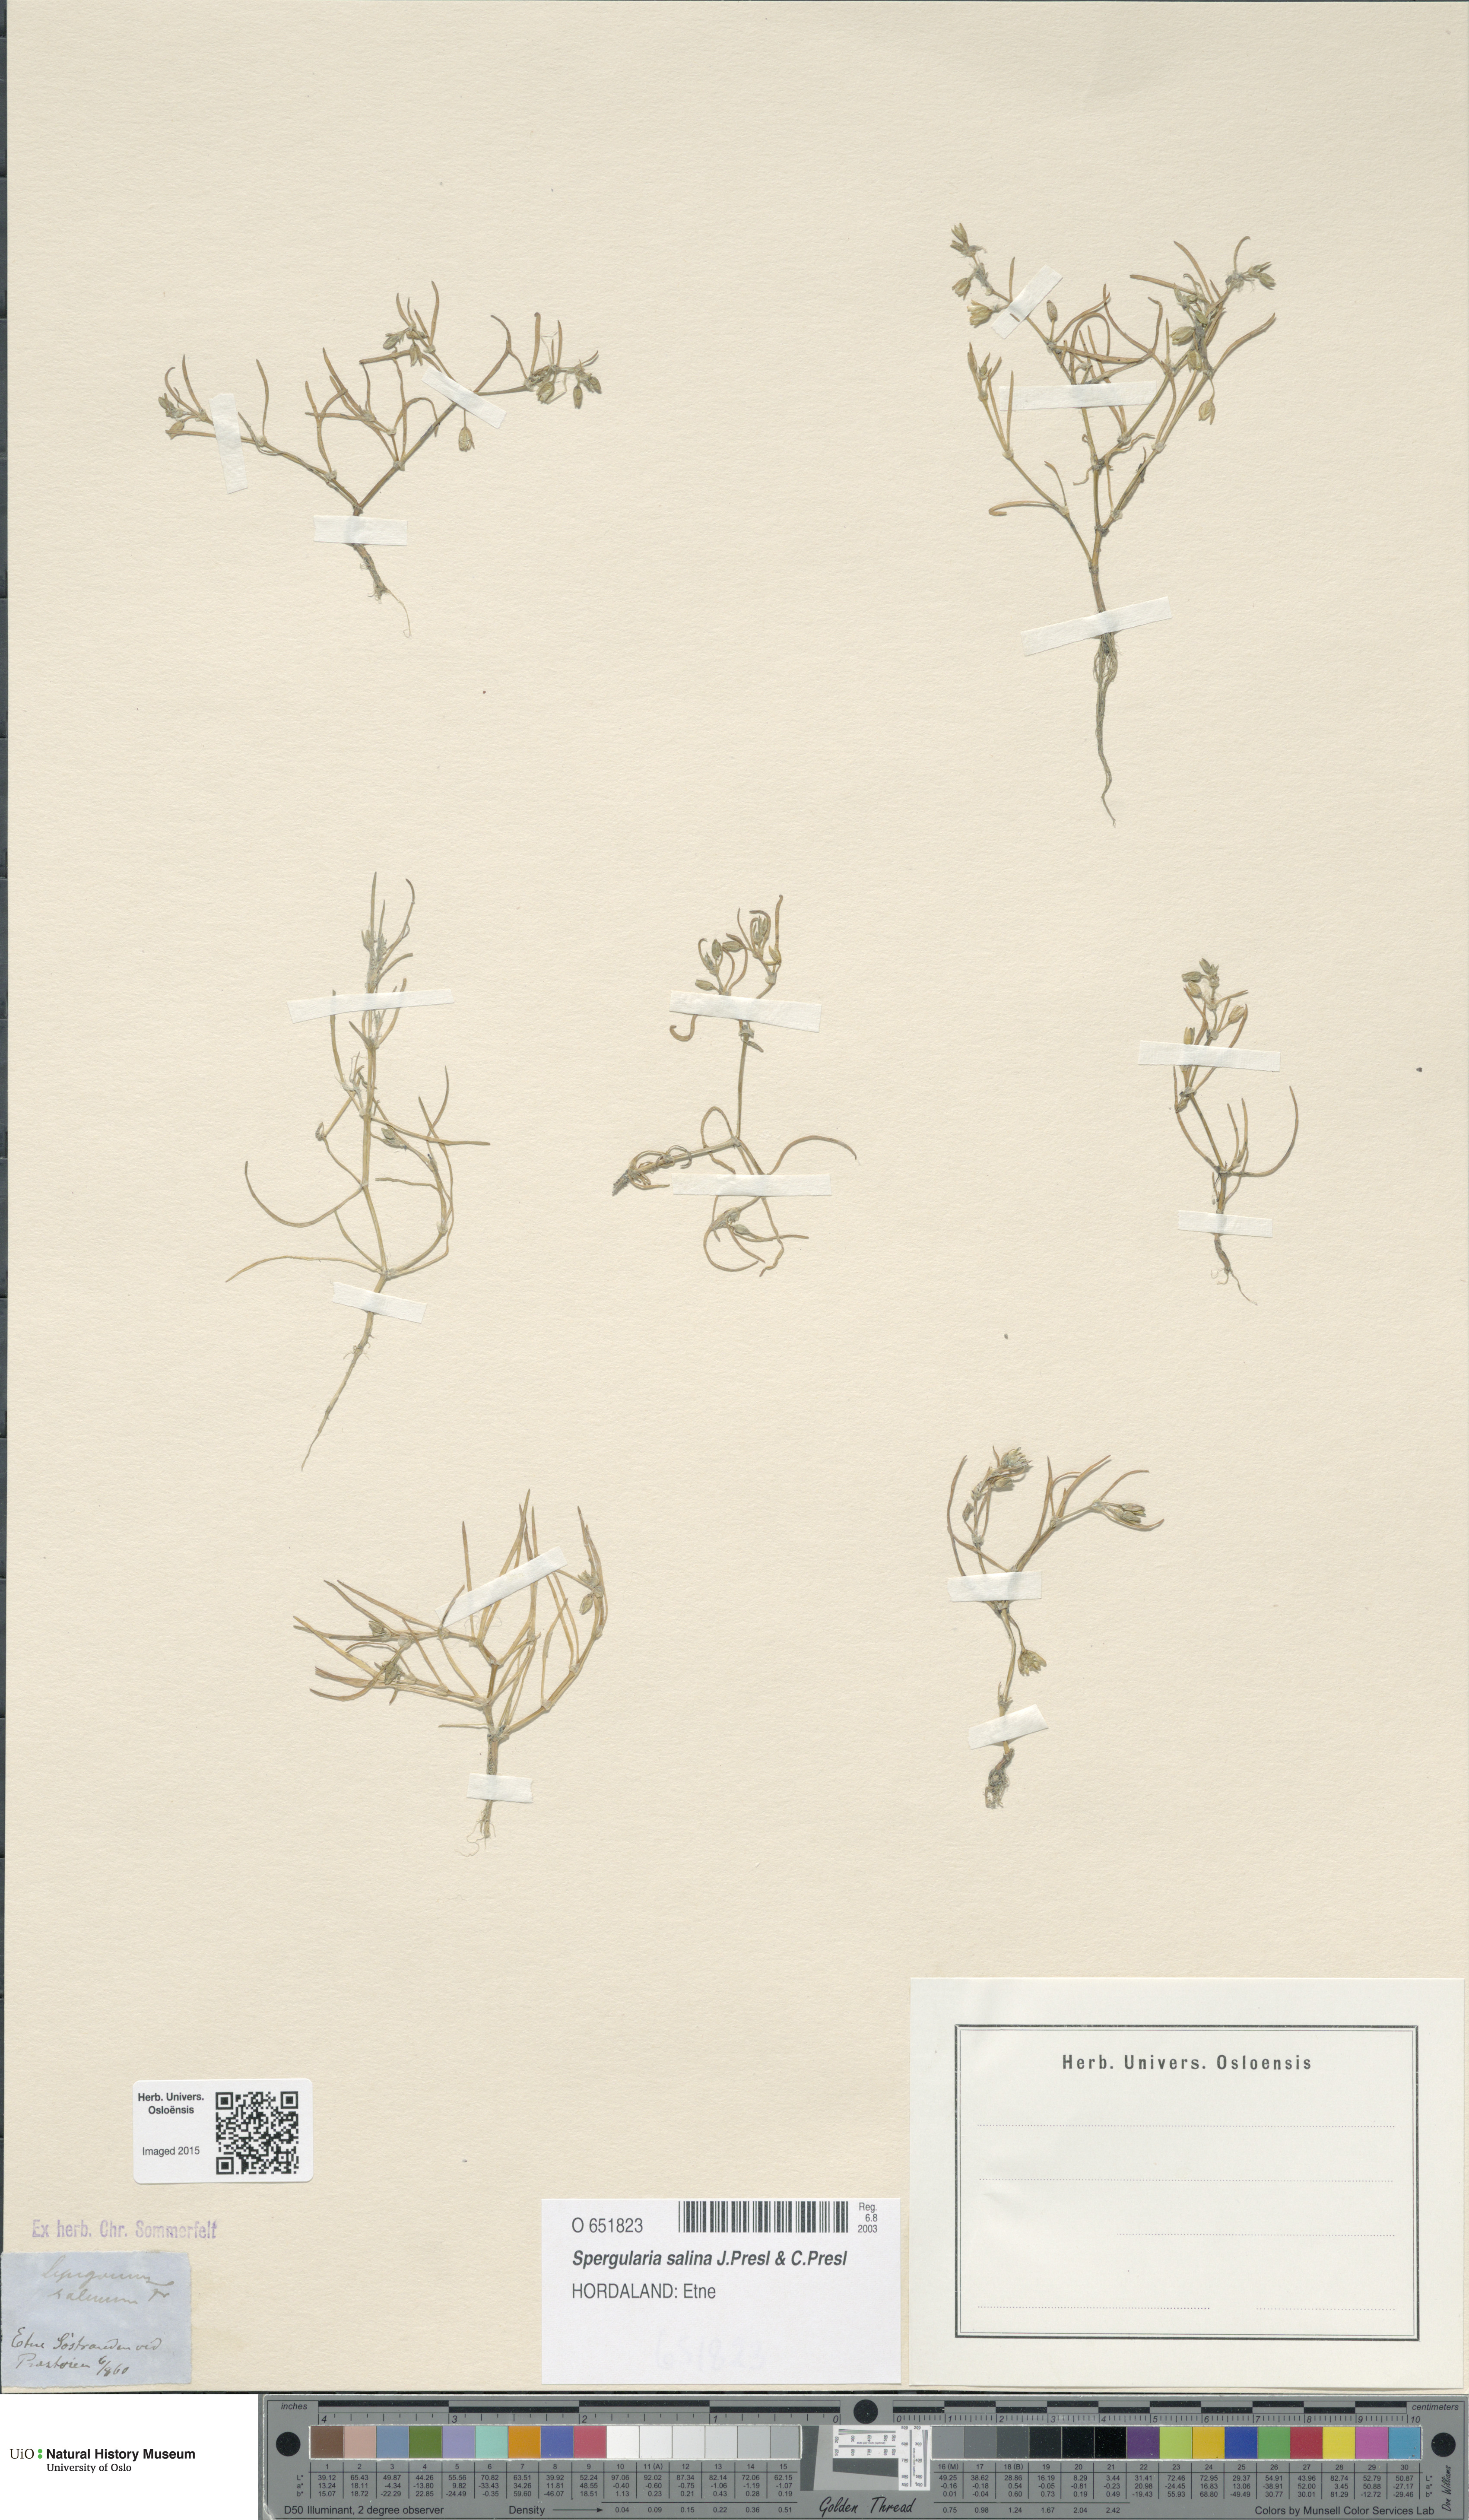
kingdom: Plantae
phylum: Tracheophyta
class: Magnoliopsida
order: Caryophyllales
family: Caryophyllaceae
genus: Spergularia
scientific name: Spergularia marina
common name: Lesser sea-spurrey
